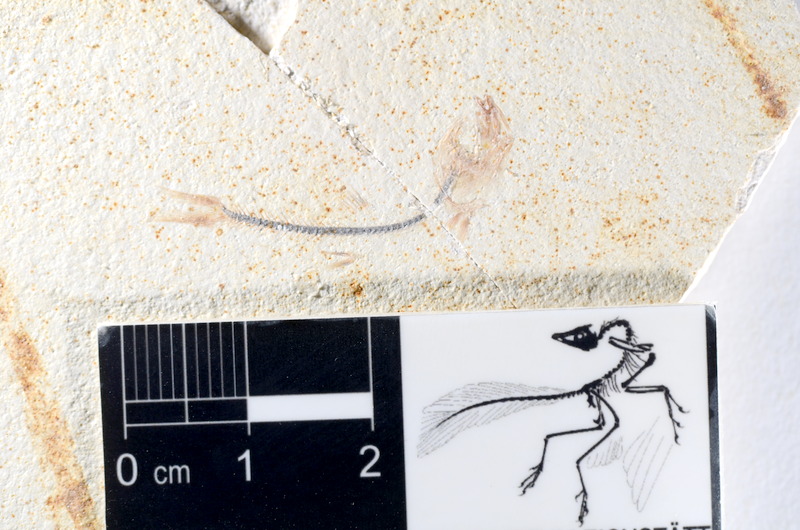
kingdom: Animalia
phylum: Chordata
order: Salmoniformes
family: Orthogonikleithridae
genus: Orthogonikleithrus
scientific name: Orthogonikleithrus hoelli
